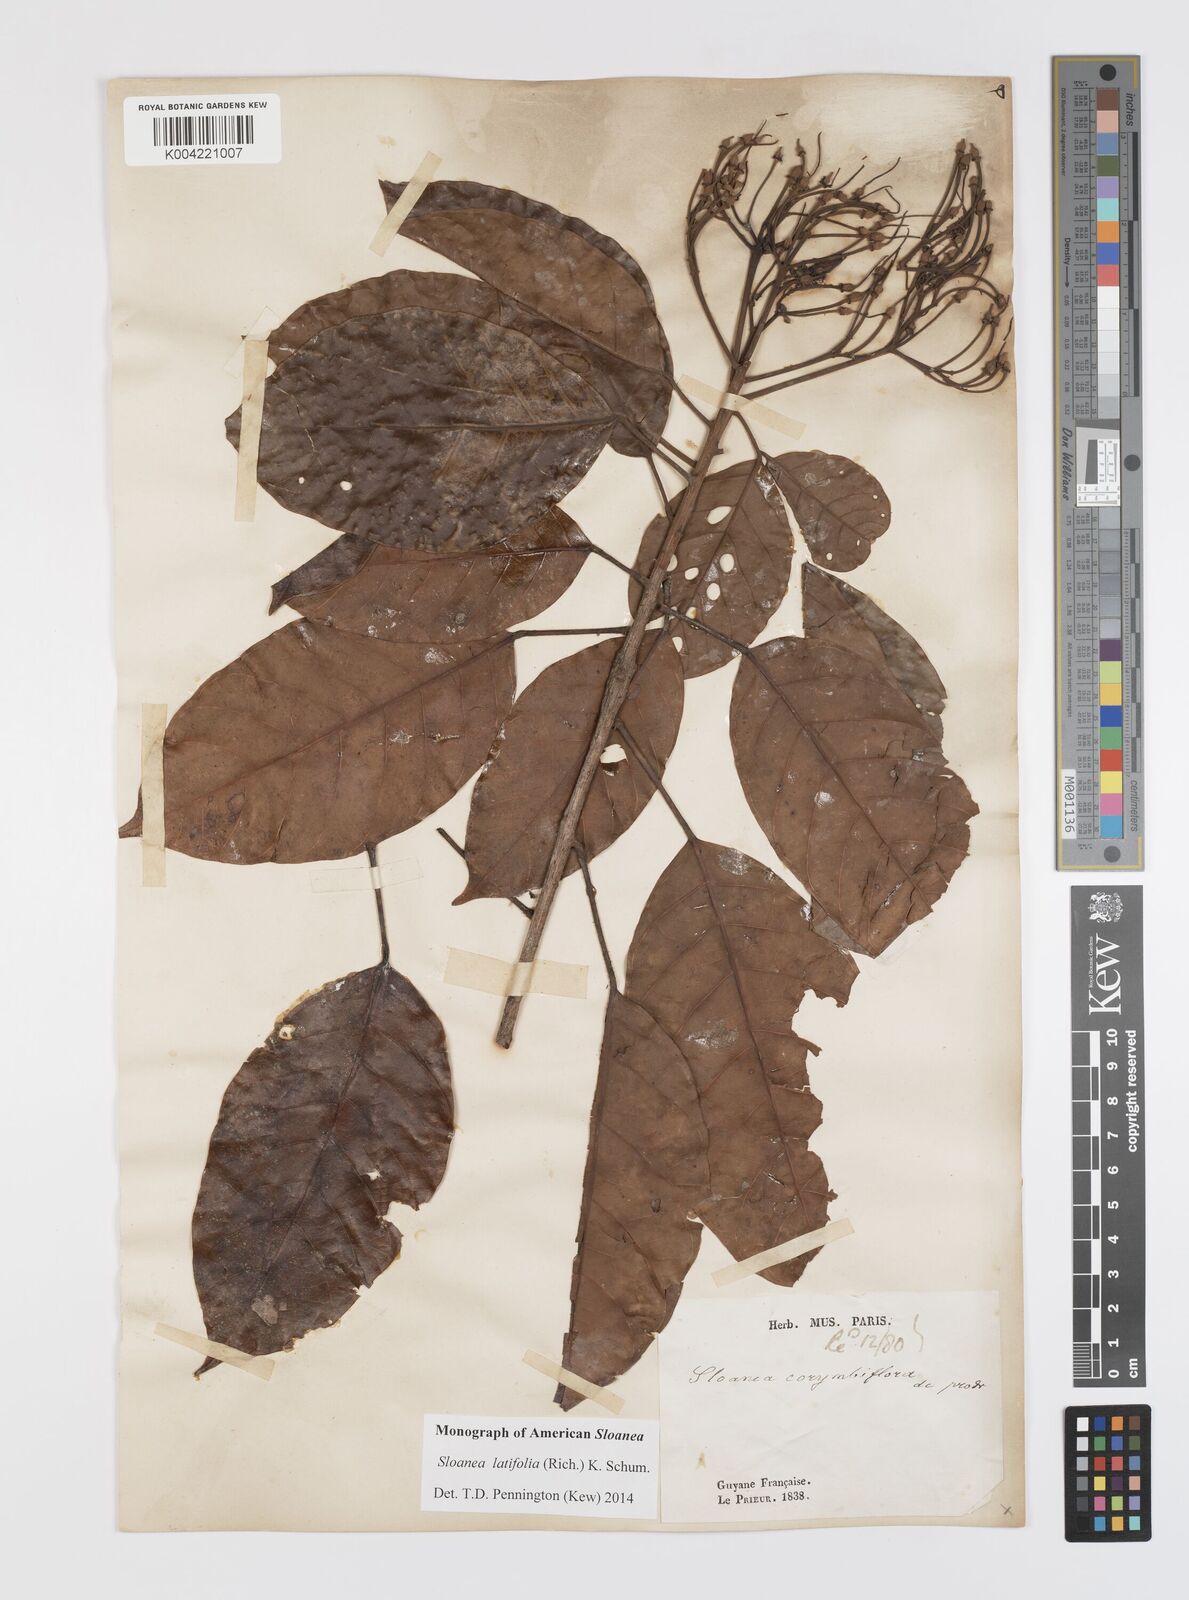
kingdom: Plantae
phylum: Tracheophyta
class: Magnoliopsida
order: Oxalidales
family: Elaeocarpaceae
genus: Sloanea
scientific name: Sloanea latifolia
